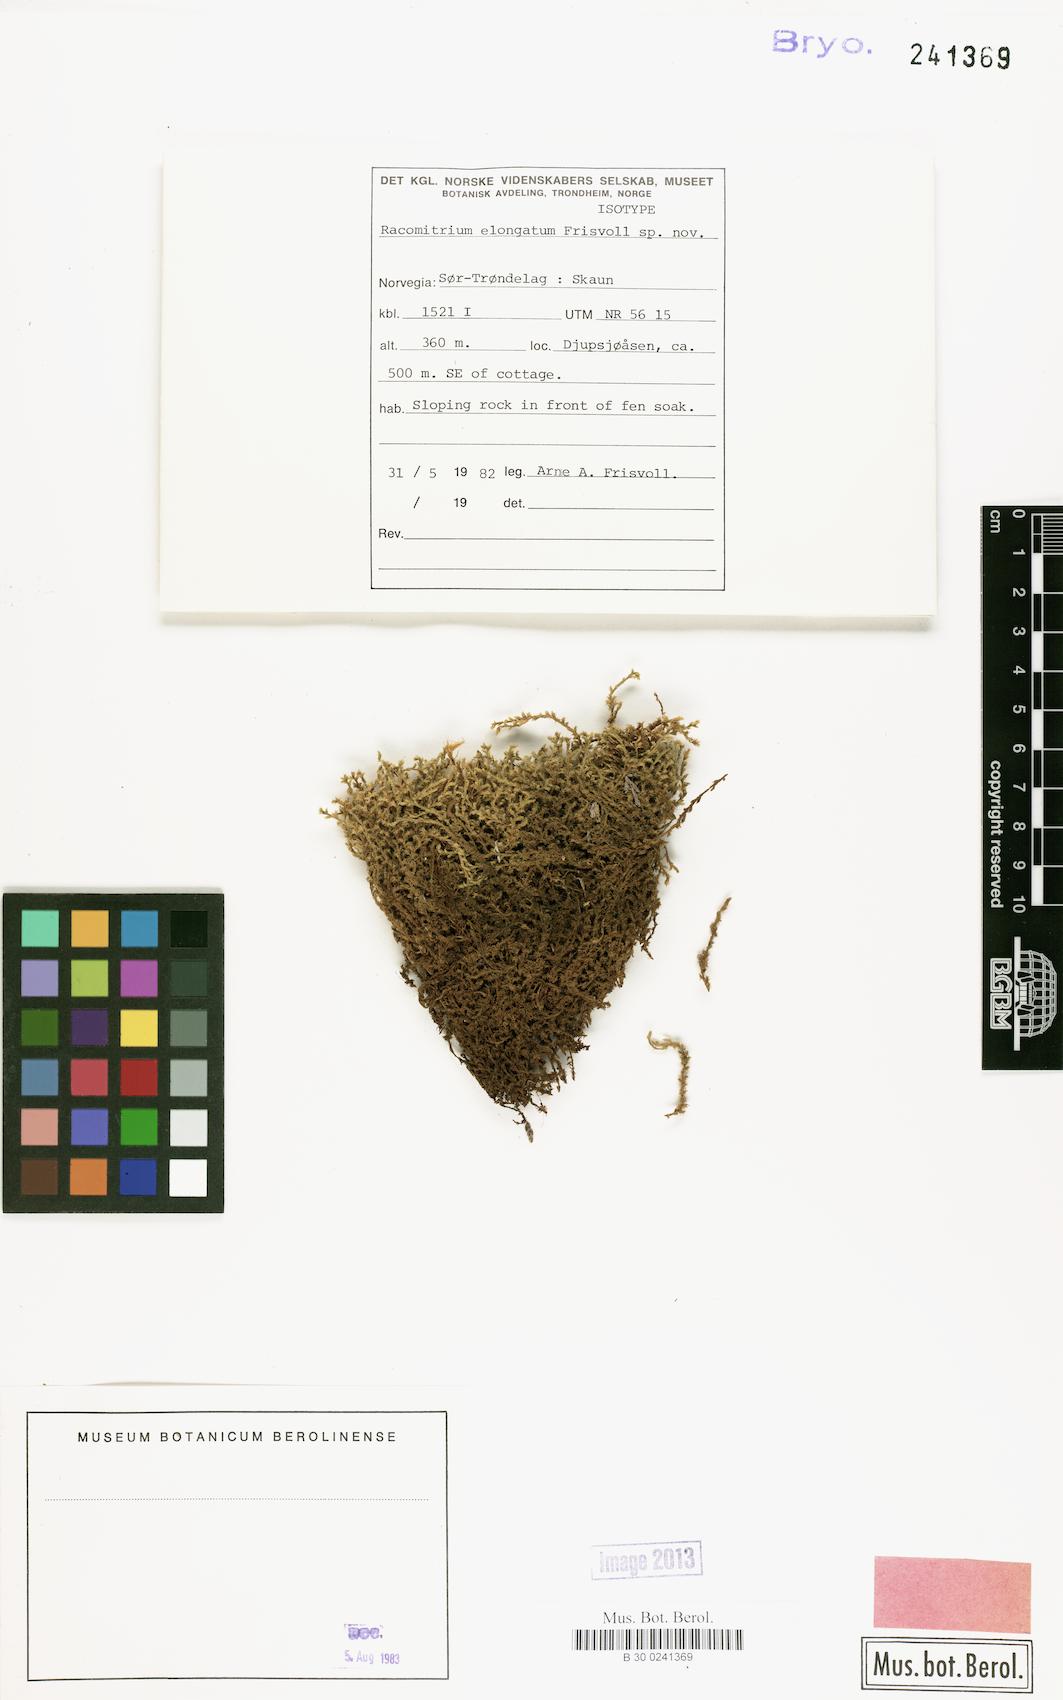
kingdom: Plantae
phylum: Bryophyta
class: Bryopsida
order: Grimmiales
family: Grimmiaceae
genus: Niphotrichum
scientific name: Niphotrichum elongatum
